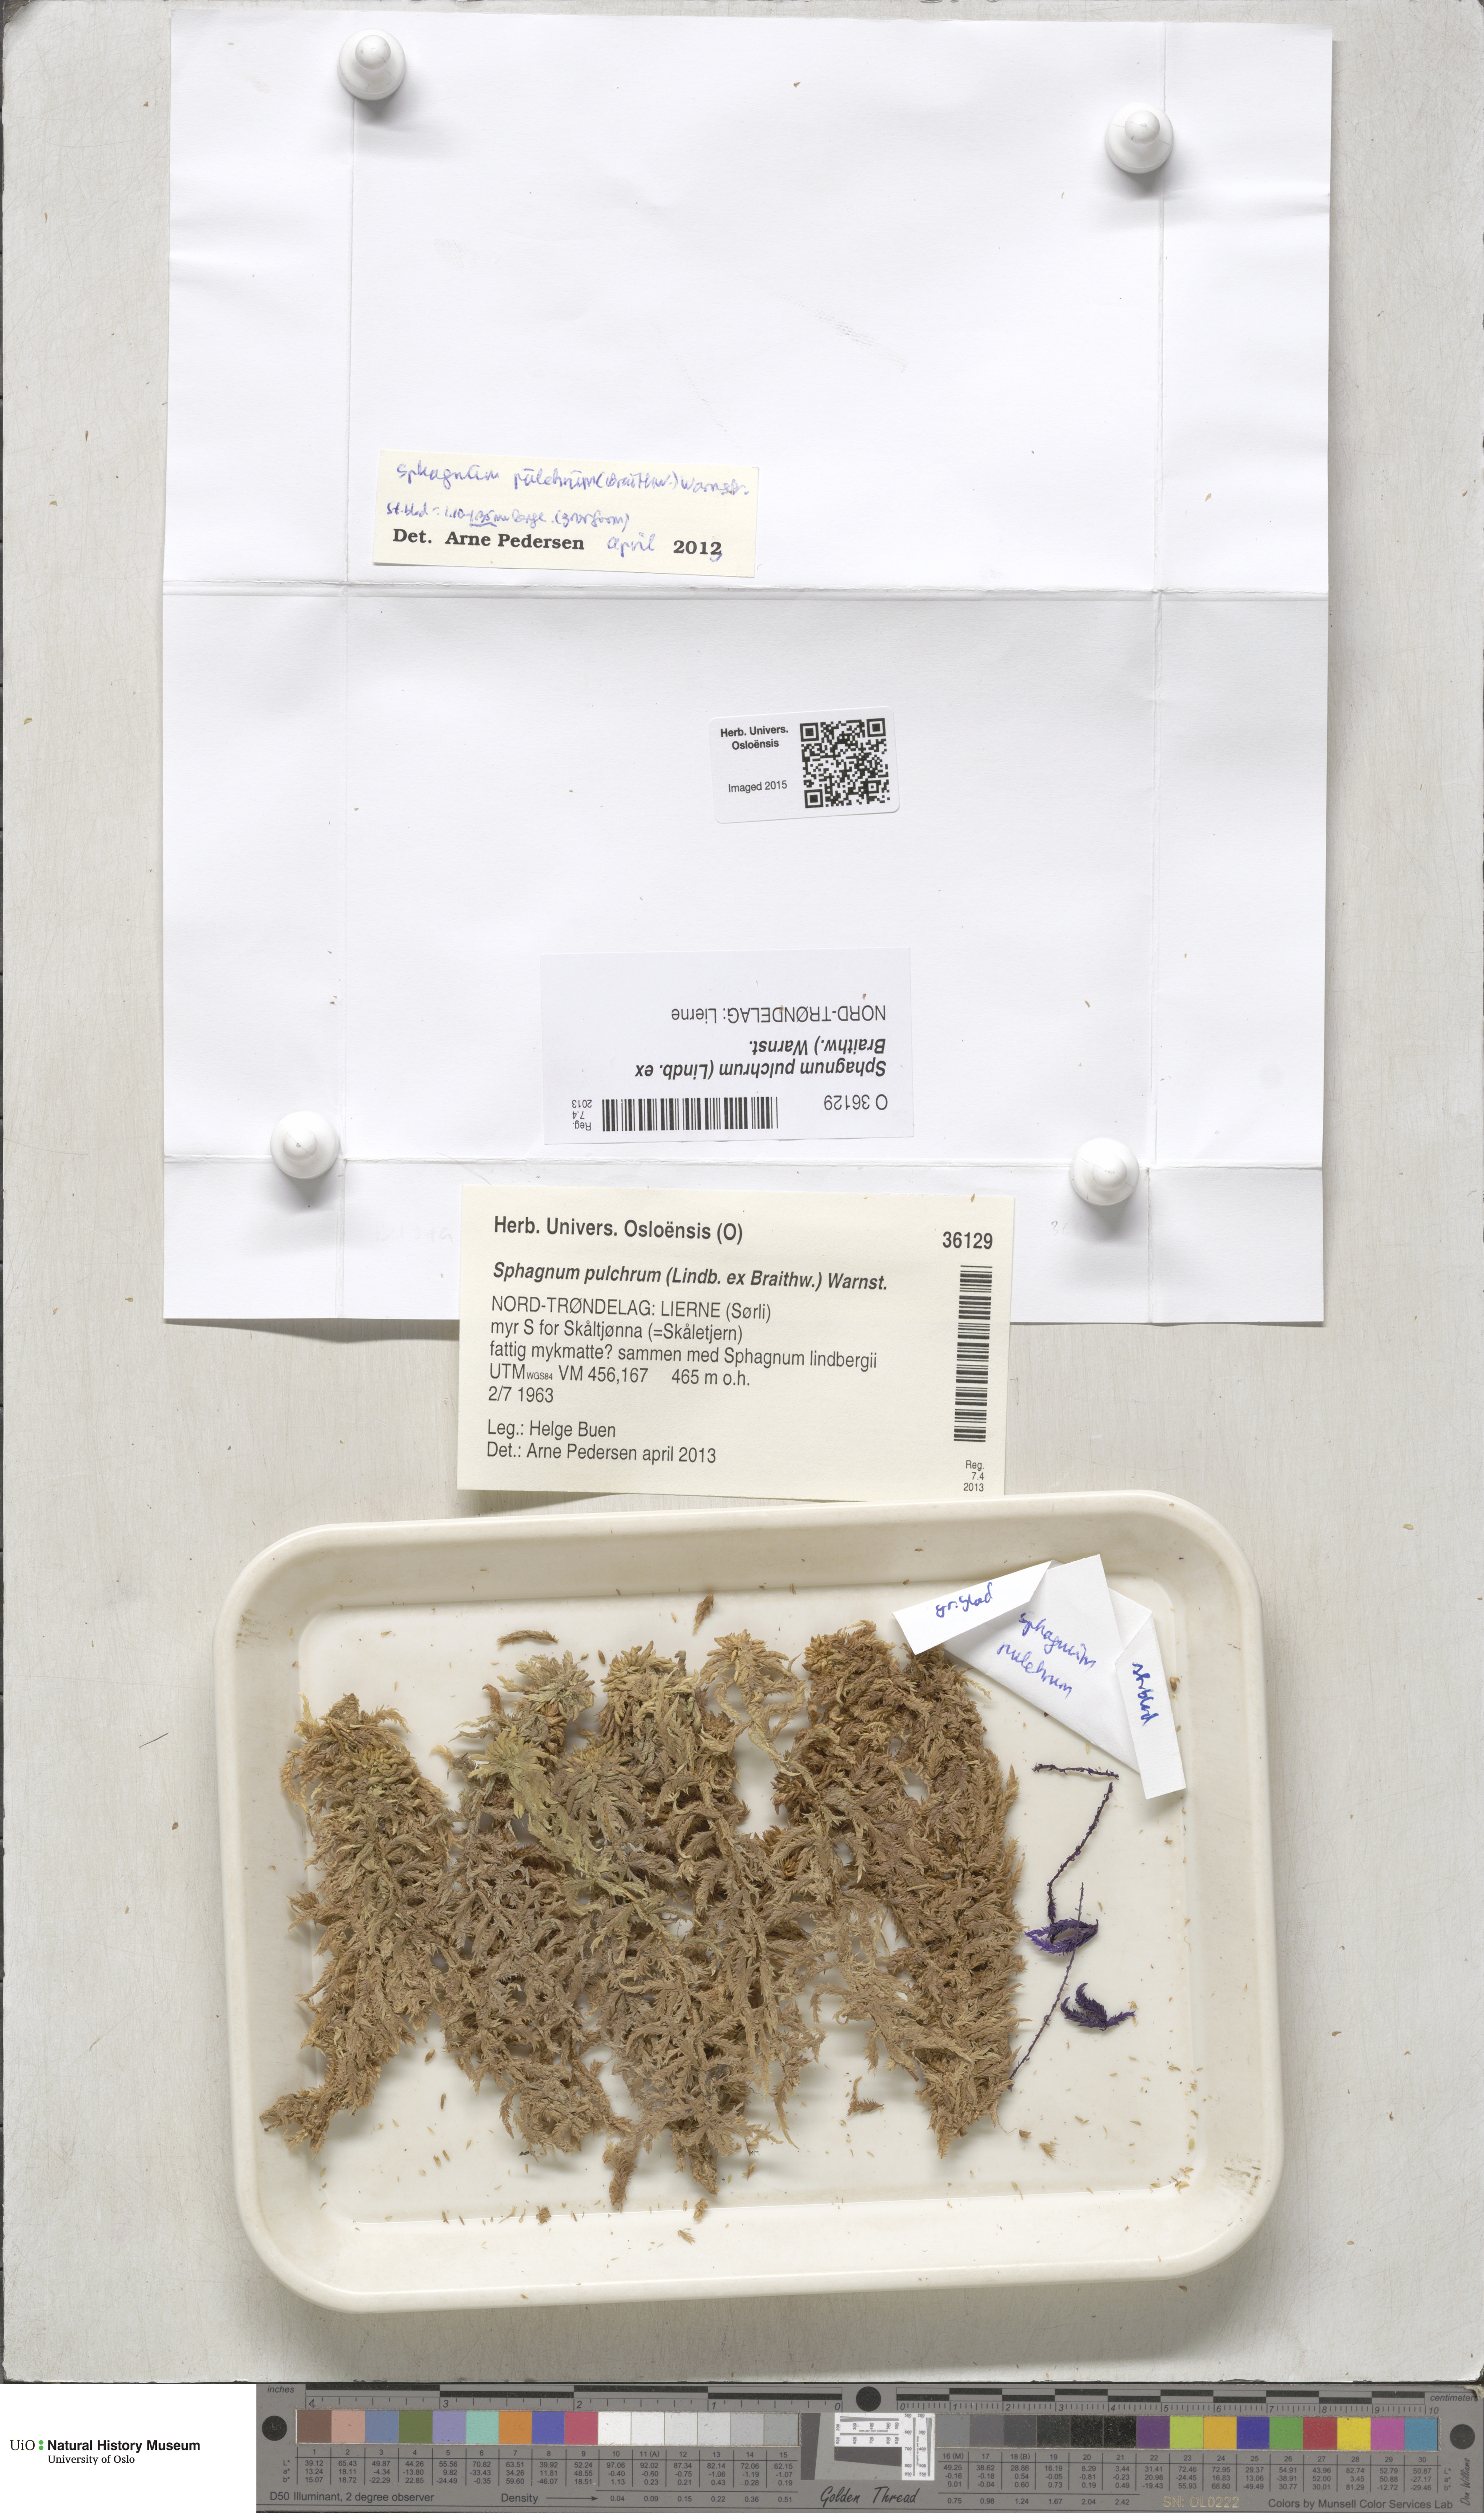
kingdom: Plantae
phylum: Bryophyta
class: Sphagnopsida
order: Sphagnales
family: Sphagnaceae
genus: Sphagnum
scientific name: Sphagnum pulchrum
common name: Beautiful peat moss
